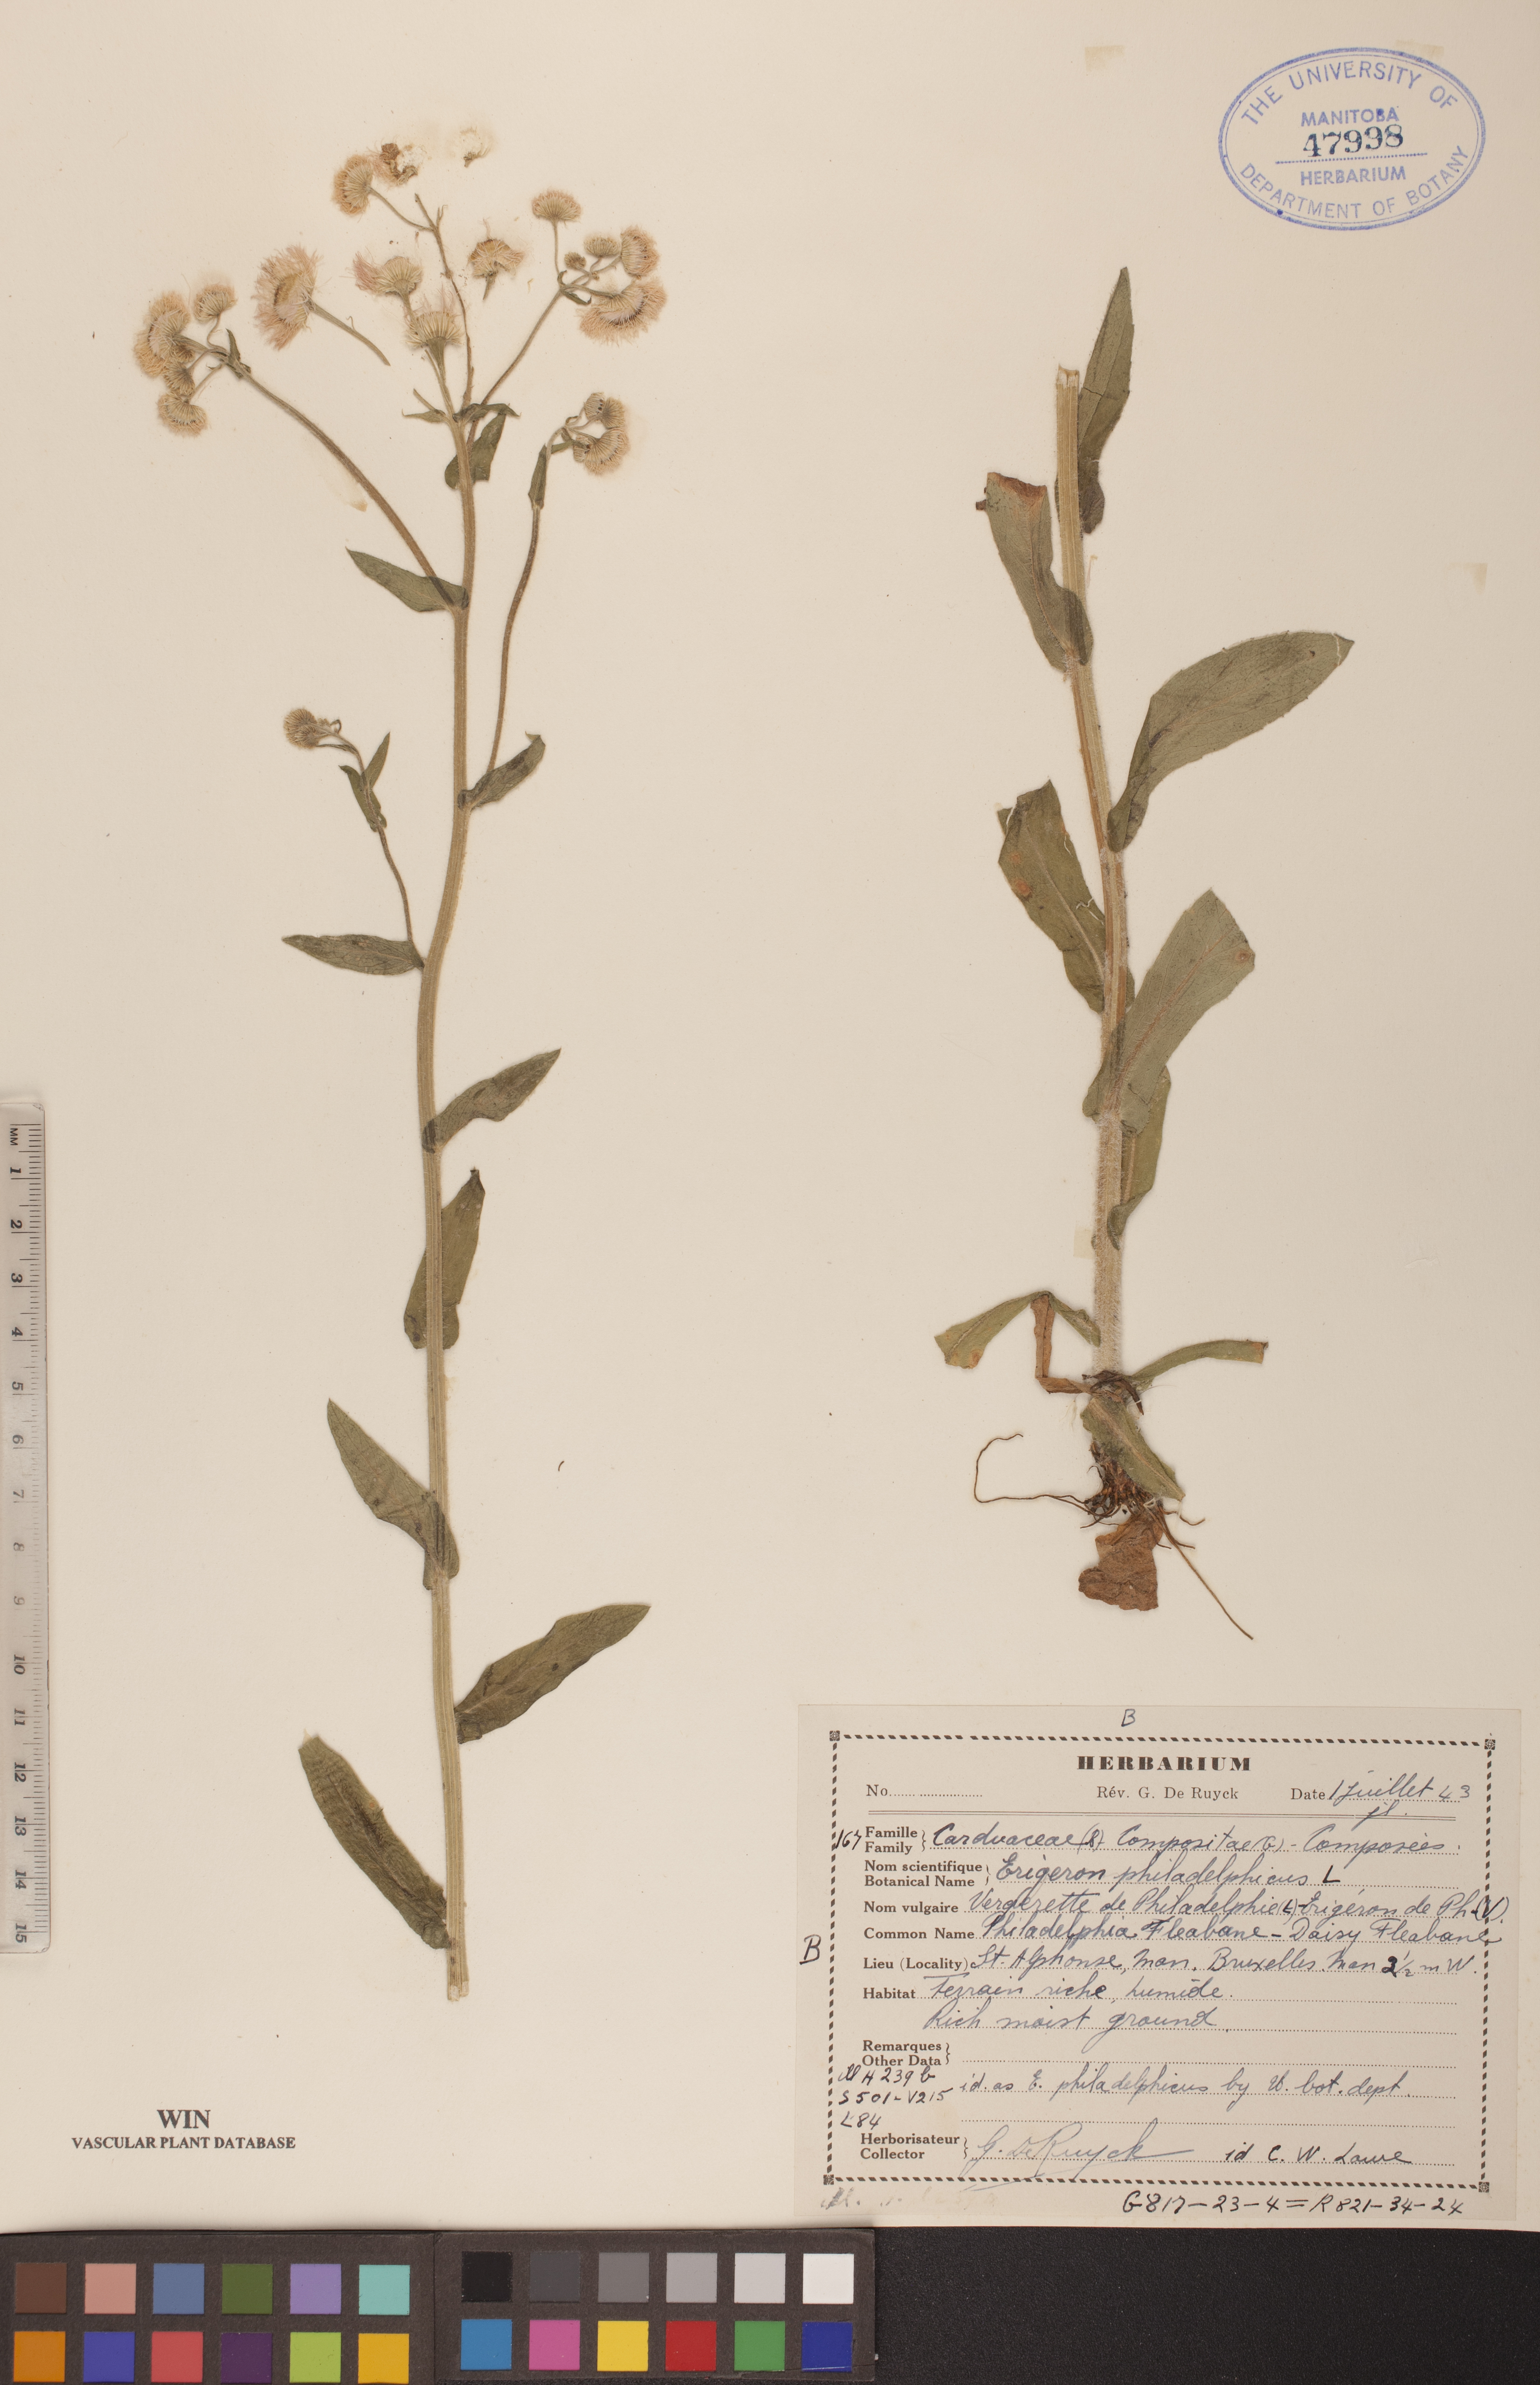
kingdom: Plantae
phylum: Tracheophyta
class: Magnoliopsida
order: Asterales
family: Asteraceae
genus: Erigeron
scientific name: Erigeron philadelphicus
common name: Robin's-plantain
